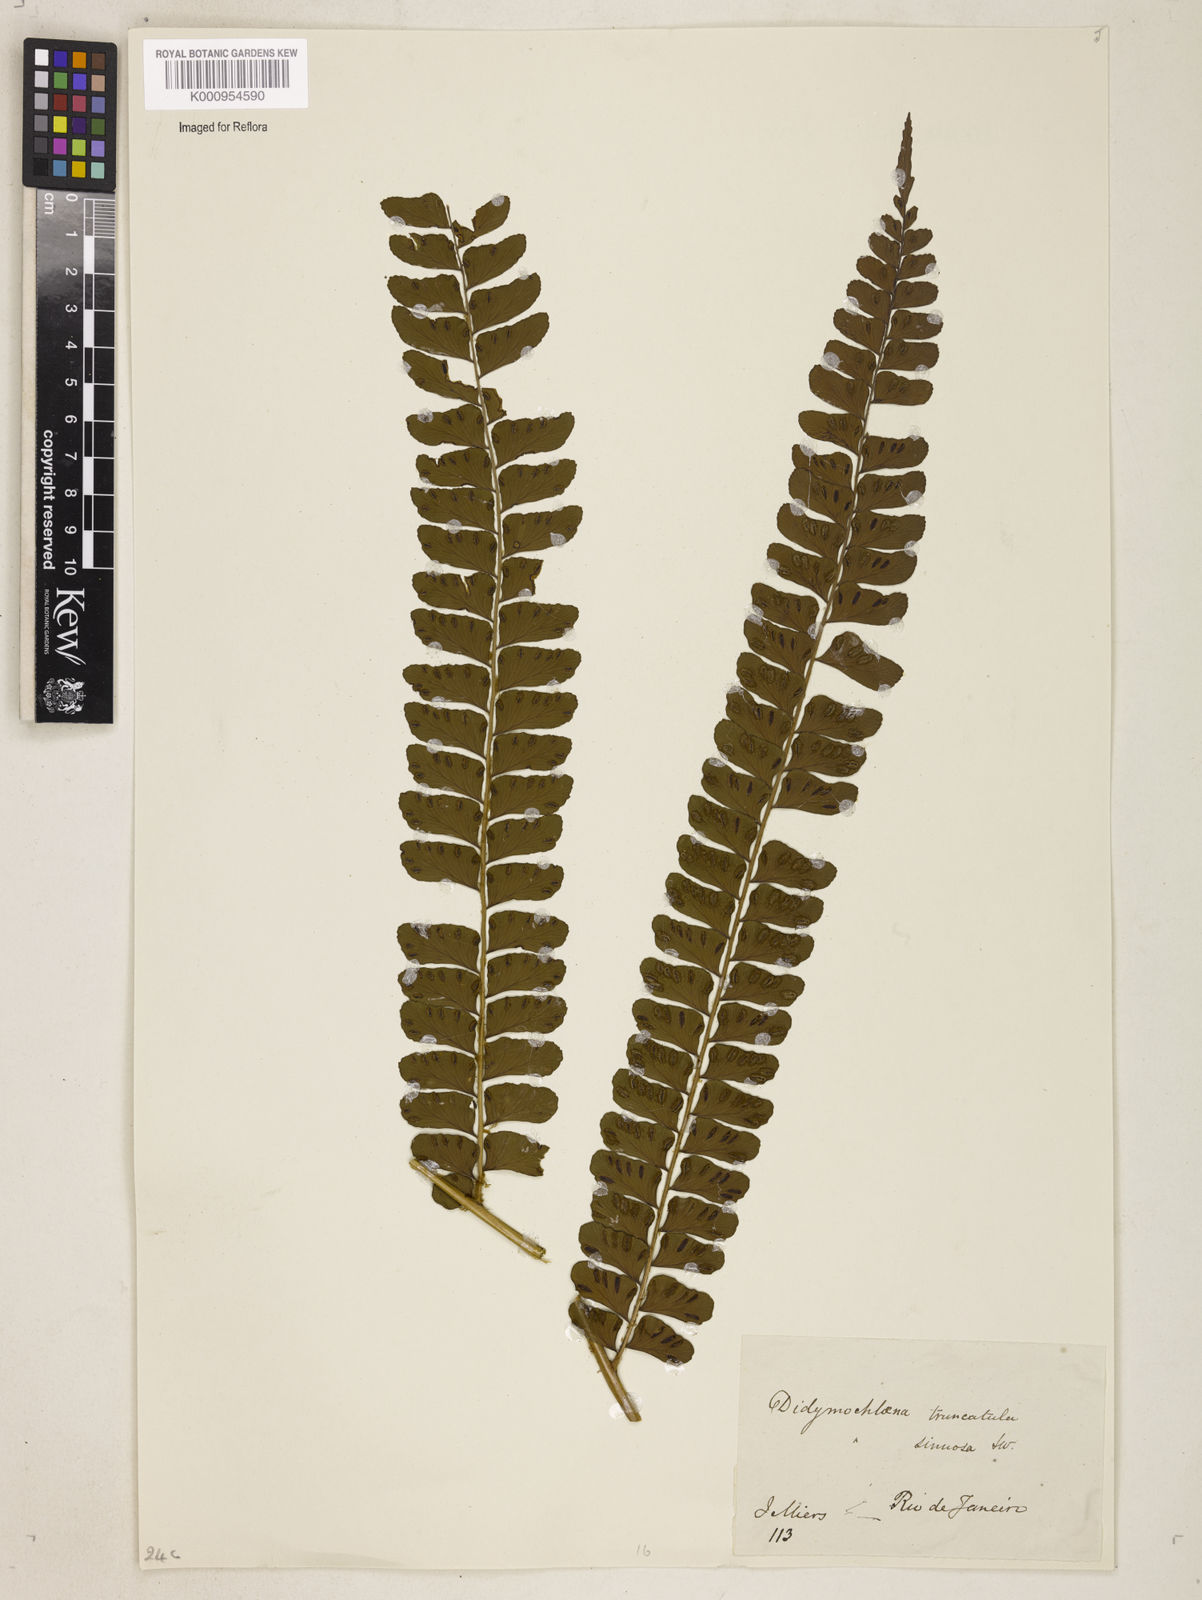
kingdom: Plantae
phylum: Tracheophyta
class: Polypodiopsida
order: Polypodiales
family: Didymochlaenaceae
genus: Didymochlaena
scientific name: Didymochlaena truncatula
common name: Mahogany fern
